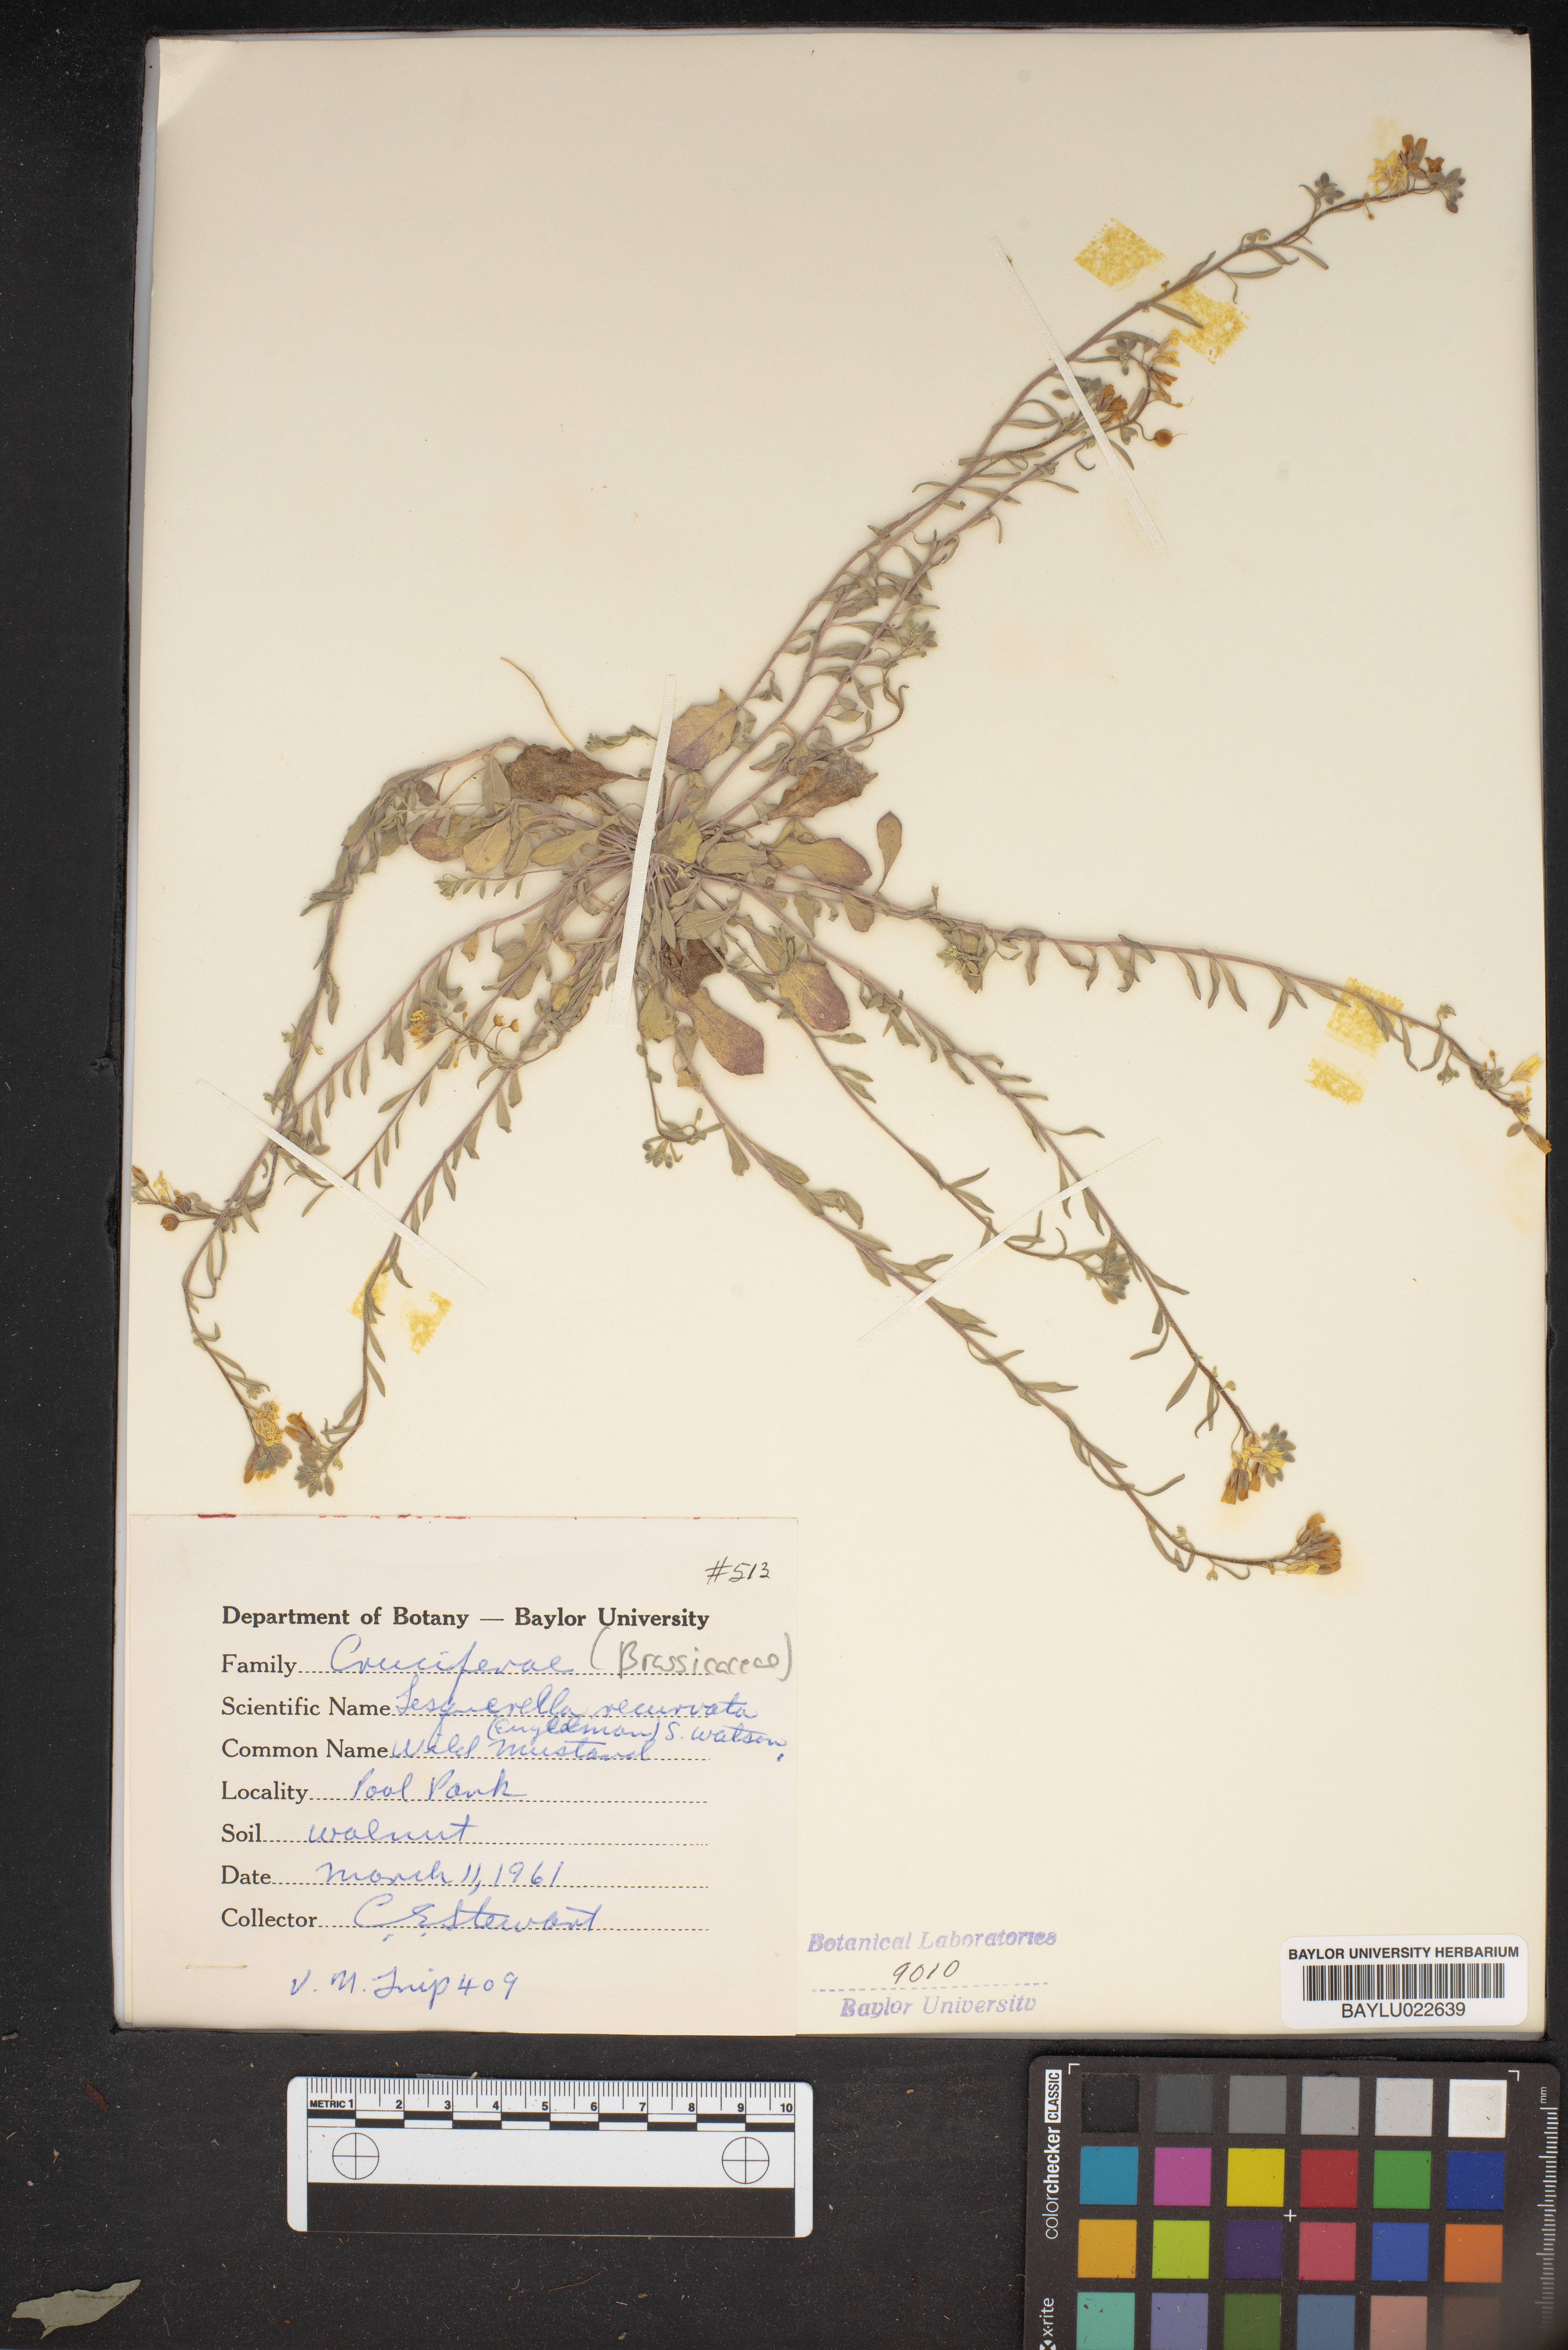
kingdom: Plantae
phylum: Tracheophyta
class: Magnoliopsida
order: Brassicales
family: Brassicaceae
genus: Physaria
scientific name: Physaria recurvata
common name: Gaslight bladderpod
